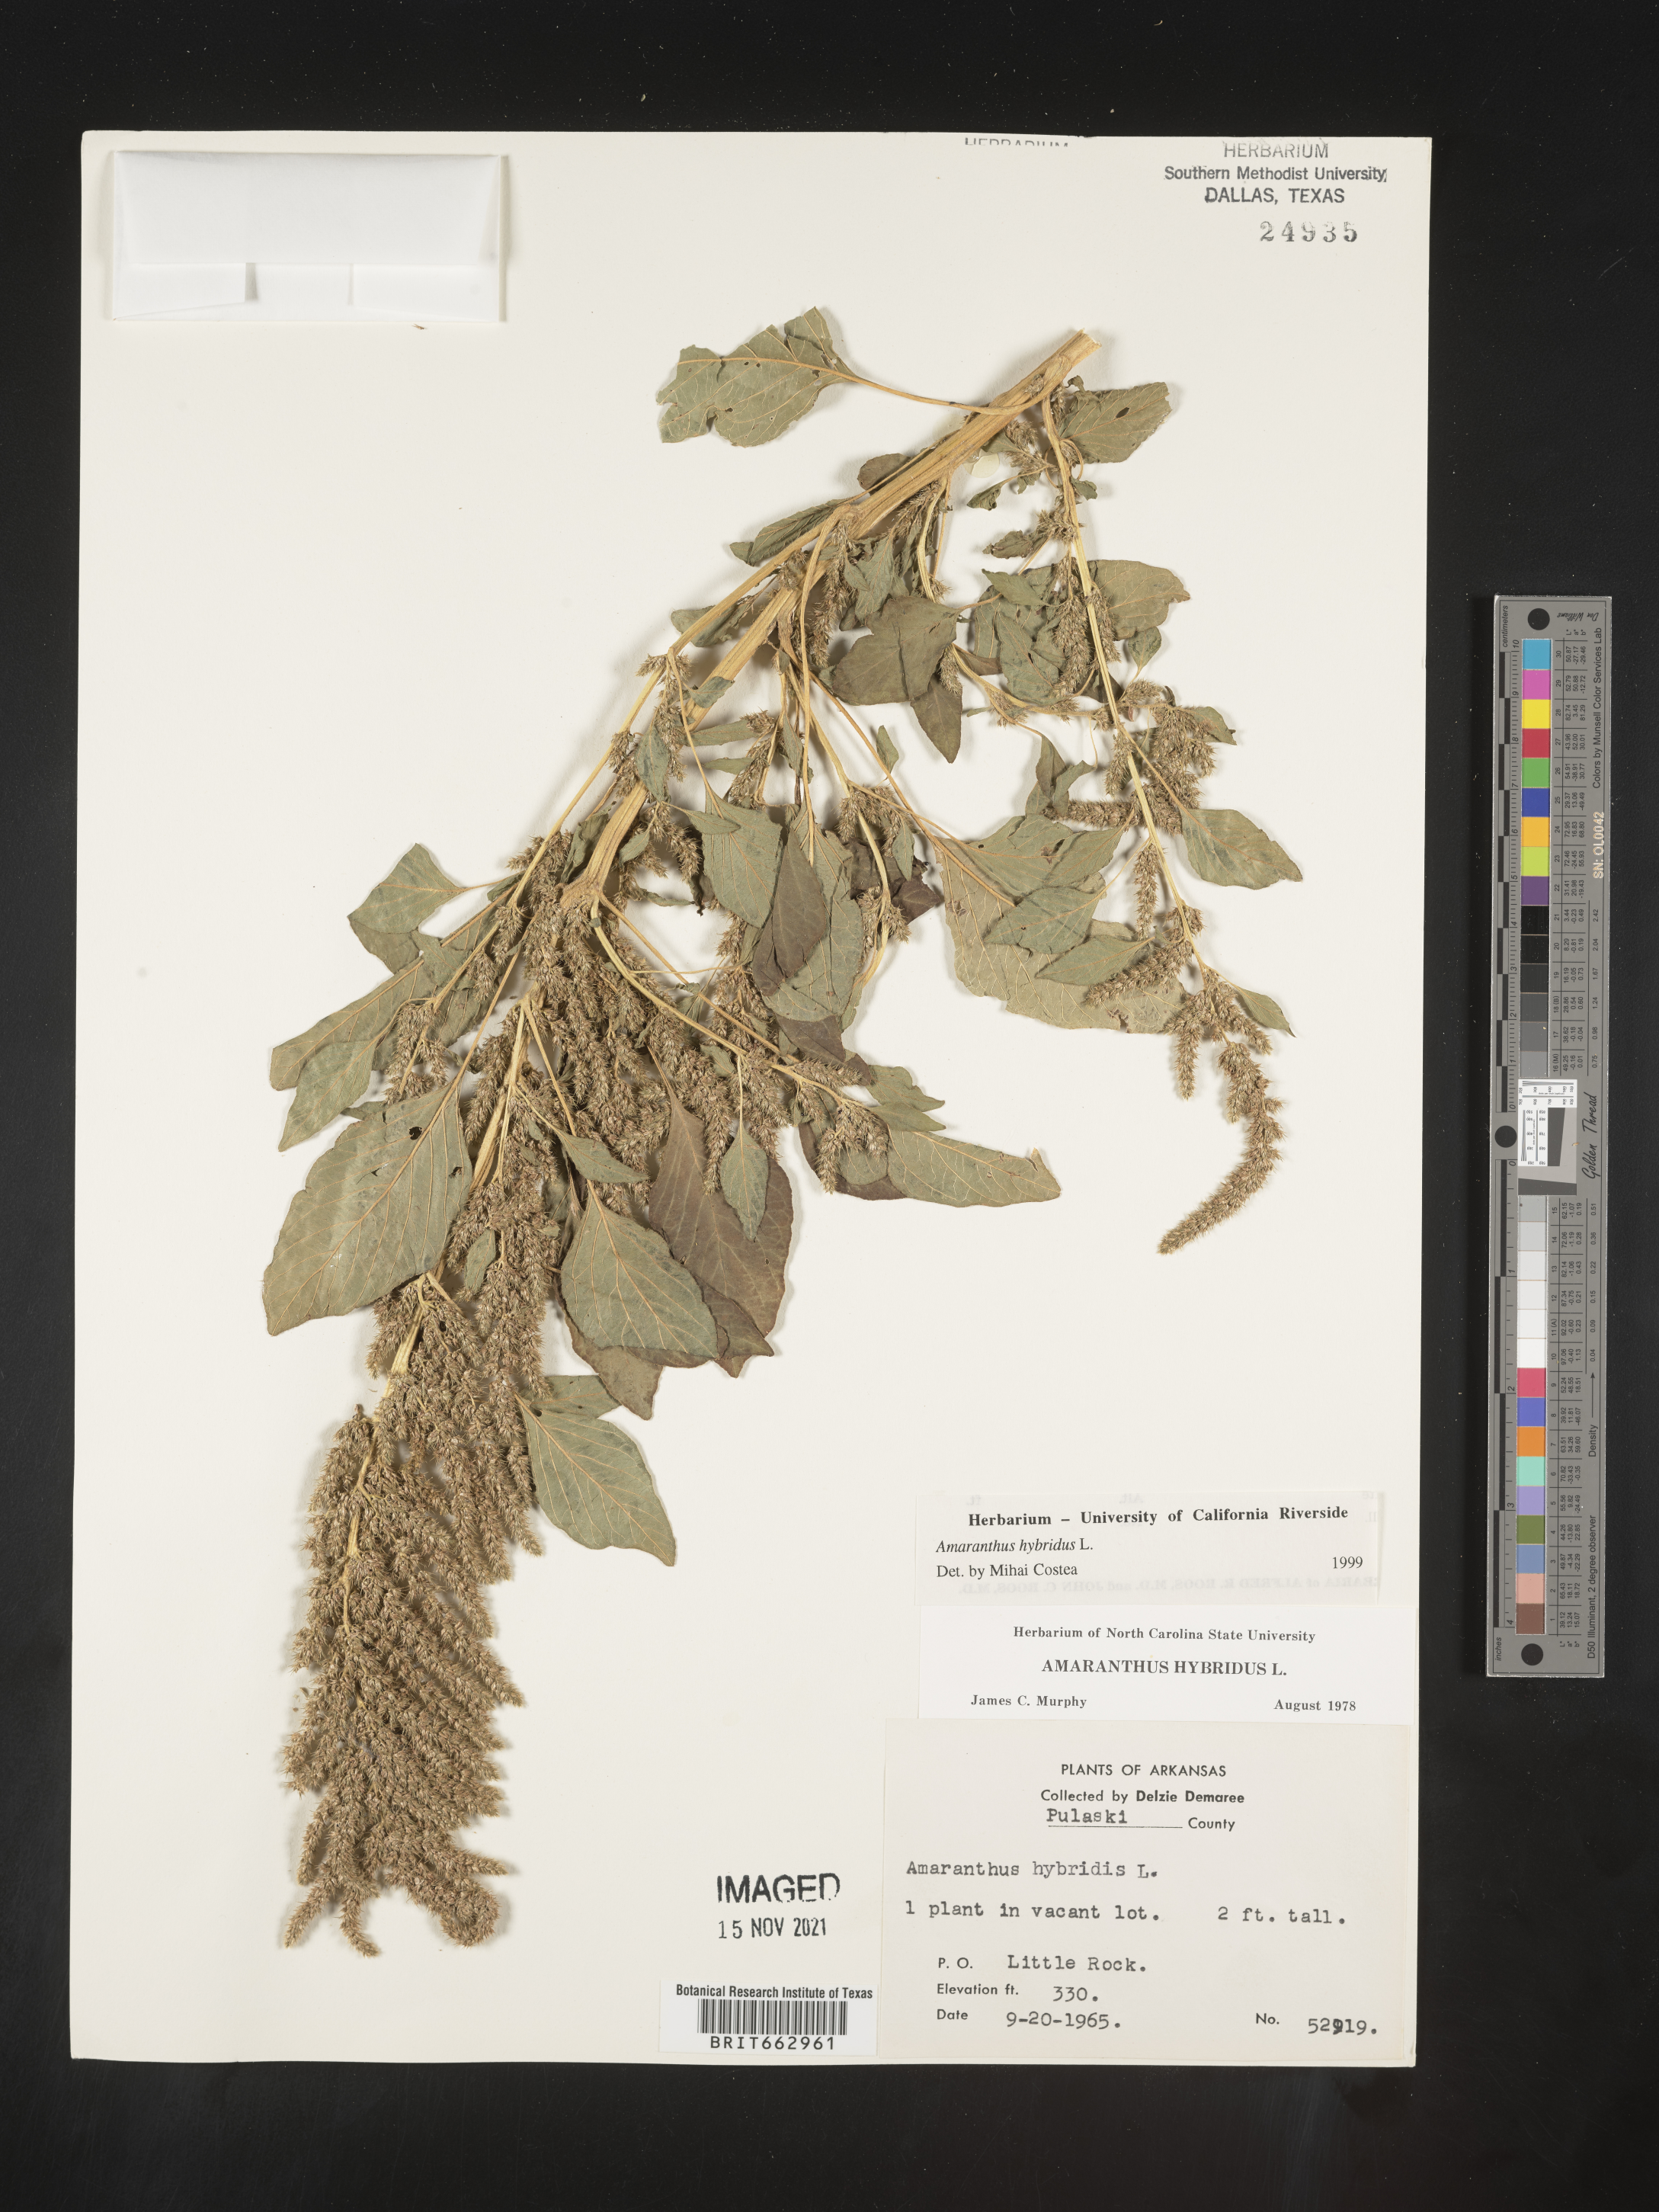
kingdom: Plantae
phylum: Tracheophyta
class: Magnoliopsida
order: Caryophyllales
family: Amaranthaceae
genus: Amaranthus
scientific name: Amaranthus hybridus
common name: Green amaranth
